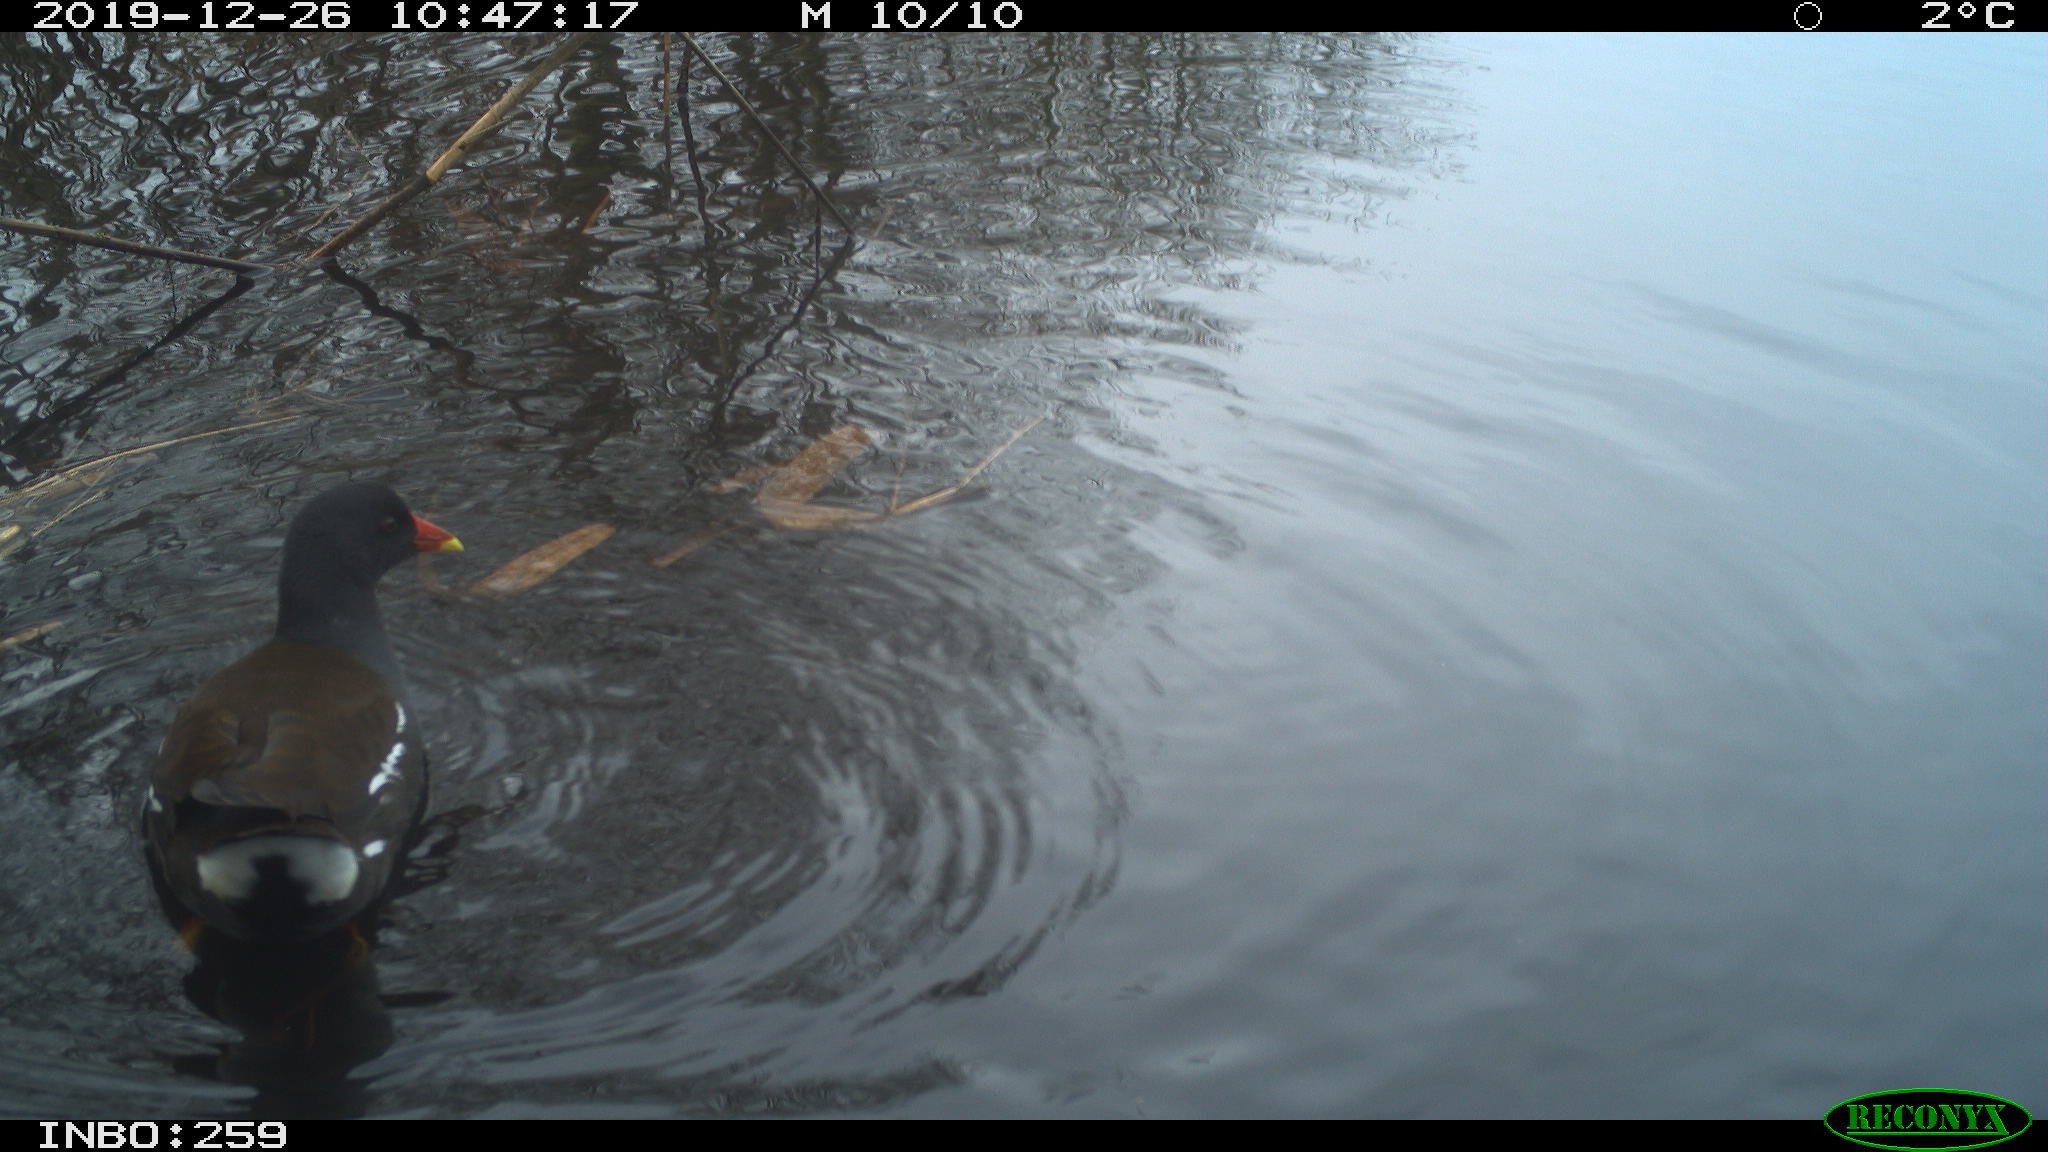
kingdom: Animalia
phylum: Chordata
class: Aves
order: Gruiformes
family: Rallidae
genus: Gallinula
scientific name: Gallinula chloropus
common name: Common moorhen
